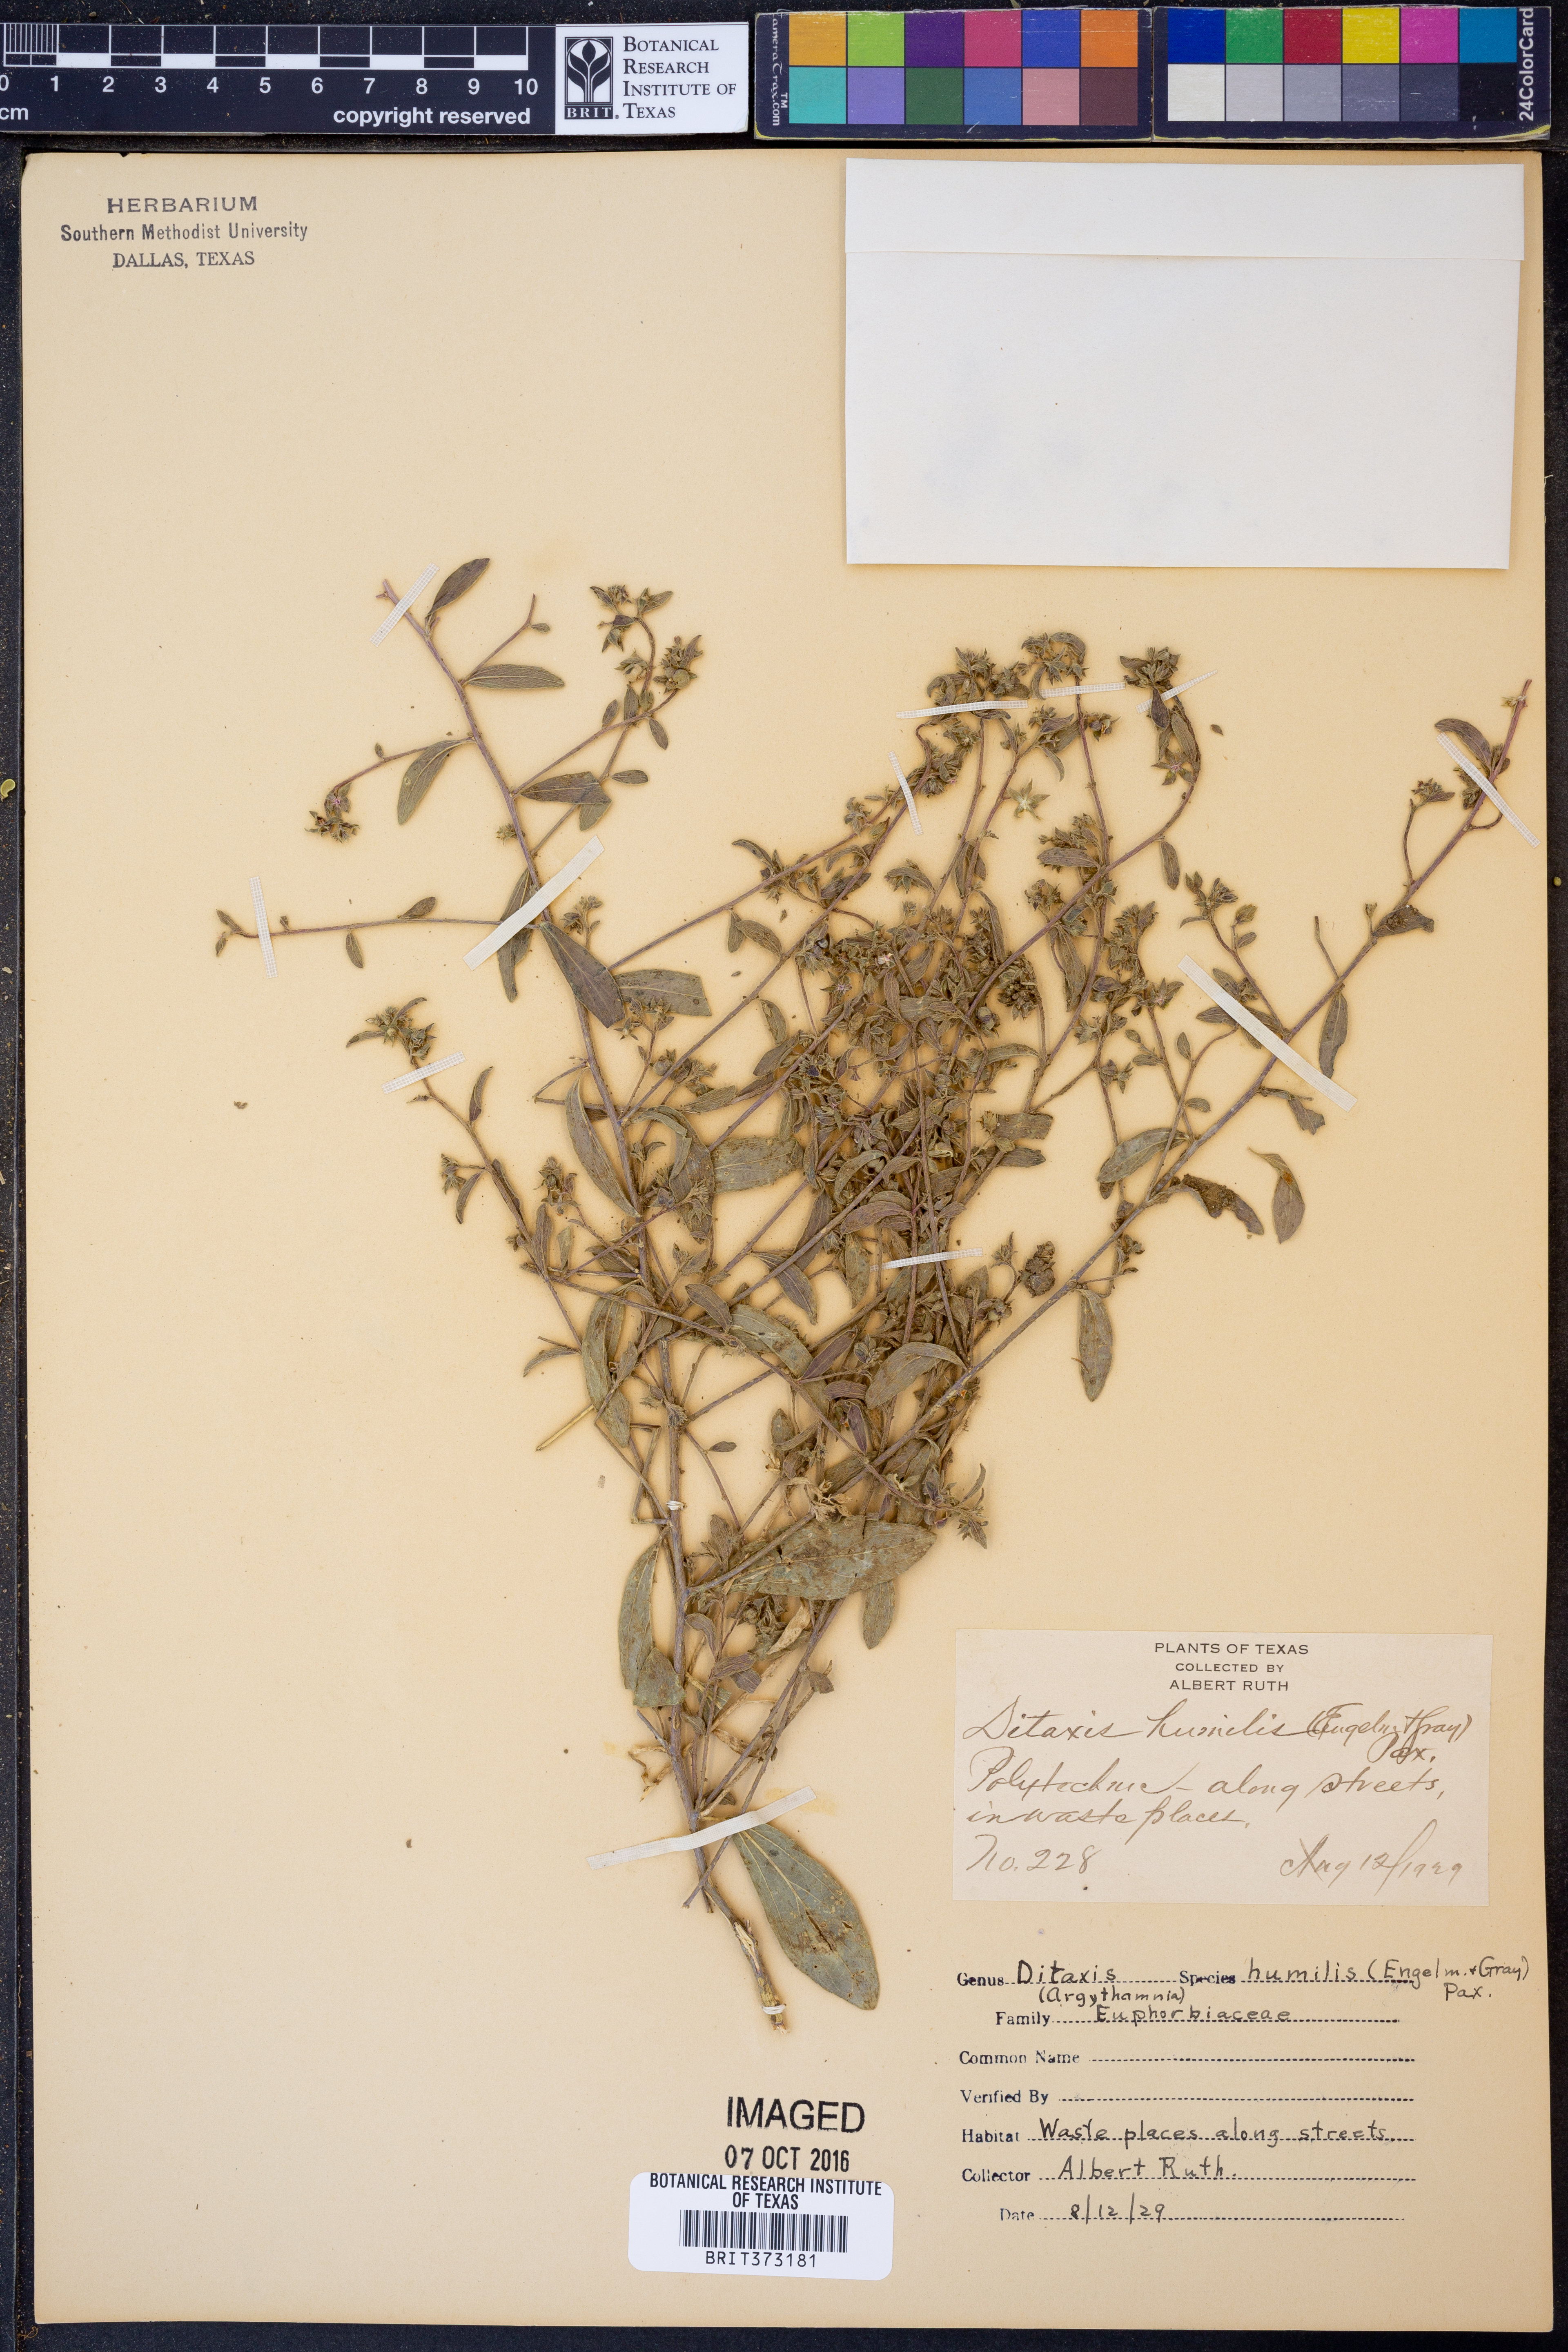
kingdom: Plantae
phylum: Tracheophyta
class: Magnoliopsida
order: Malpighiales
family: Euphorbiaceae
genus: Ditaxis
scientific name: Ditaxis humilis
